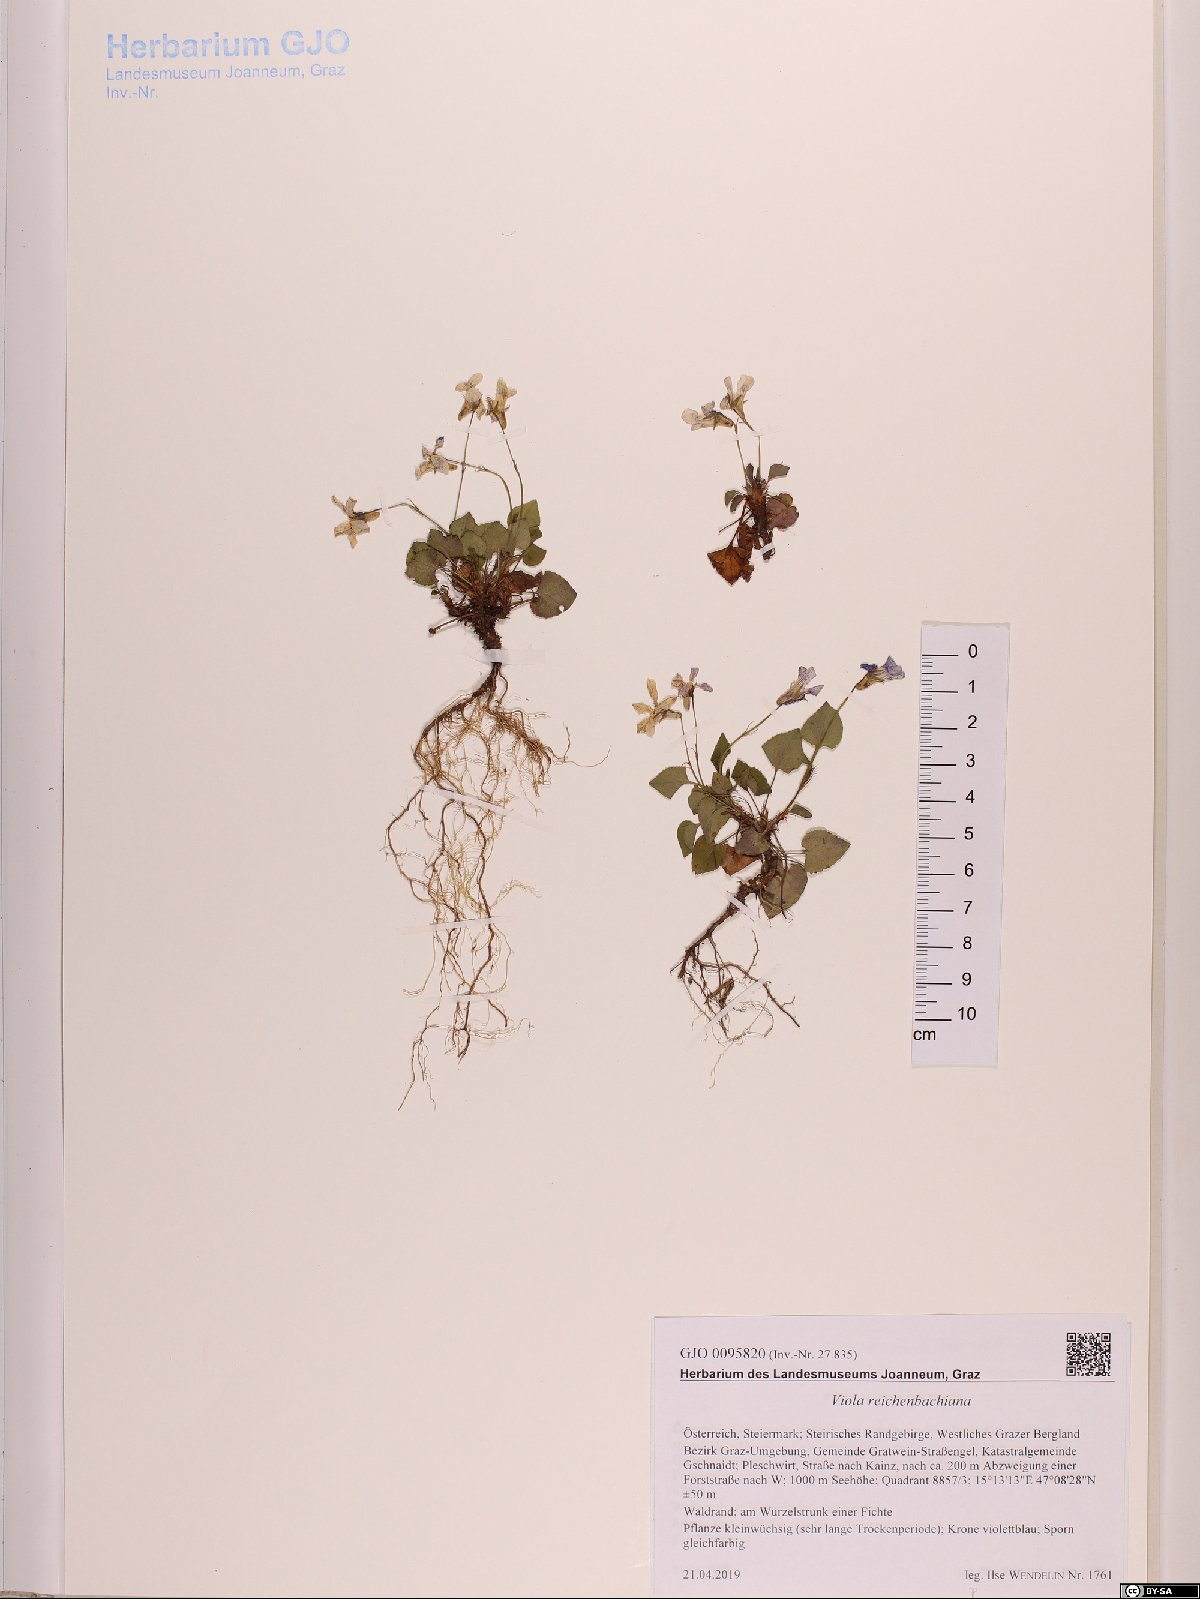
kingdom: Plantae
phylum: Tracheophyta
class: Magnoliopsida
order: Malpighiales
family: Violaceae
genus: Viola
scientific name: Viola reichenbachiana
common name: Early dog-violet
